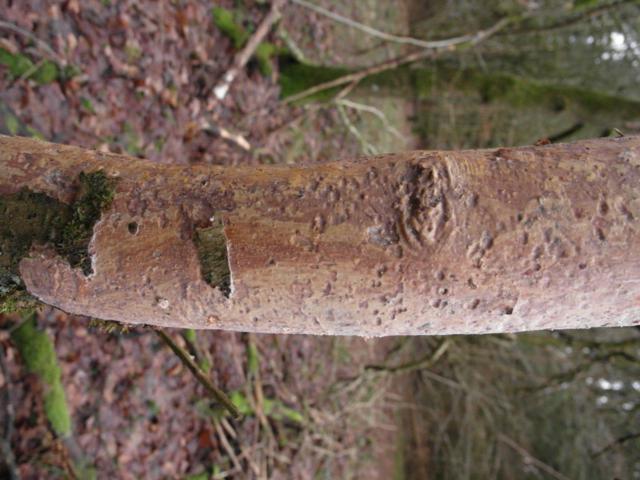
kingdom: Fungi
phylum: Basidiomycota
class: Agaricomycetes
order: Corticiales
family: Vuilleminiaceae
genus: Vuilleminia
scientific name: Vuilleminia comedens
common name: almindelig barksprænger
